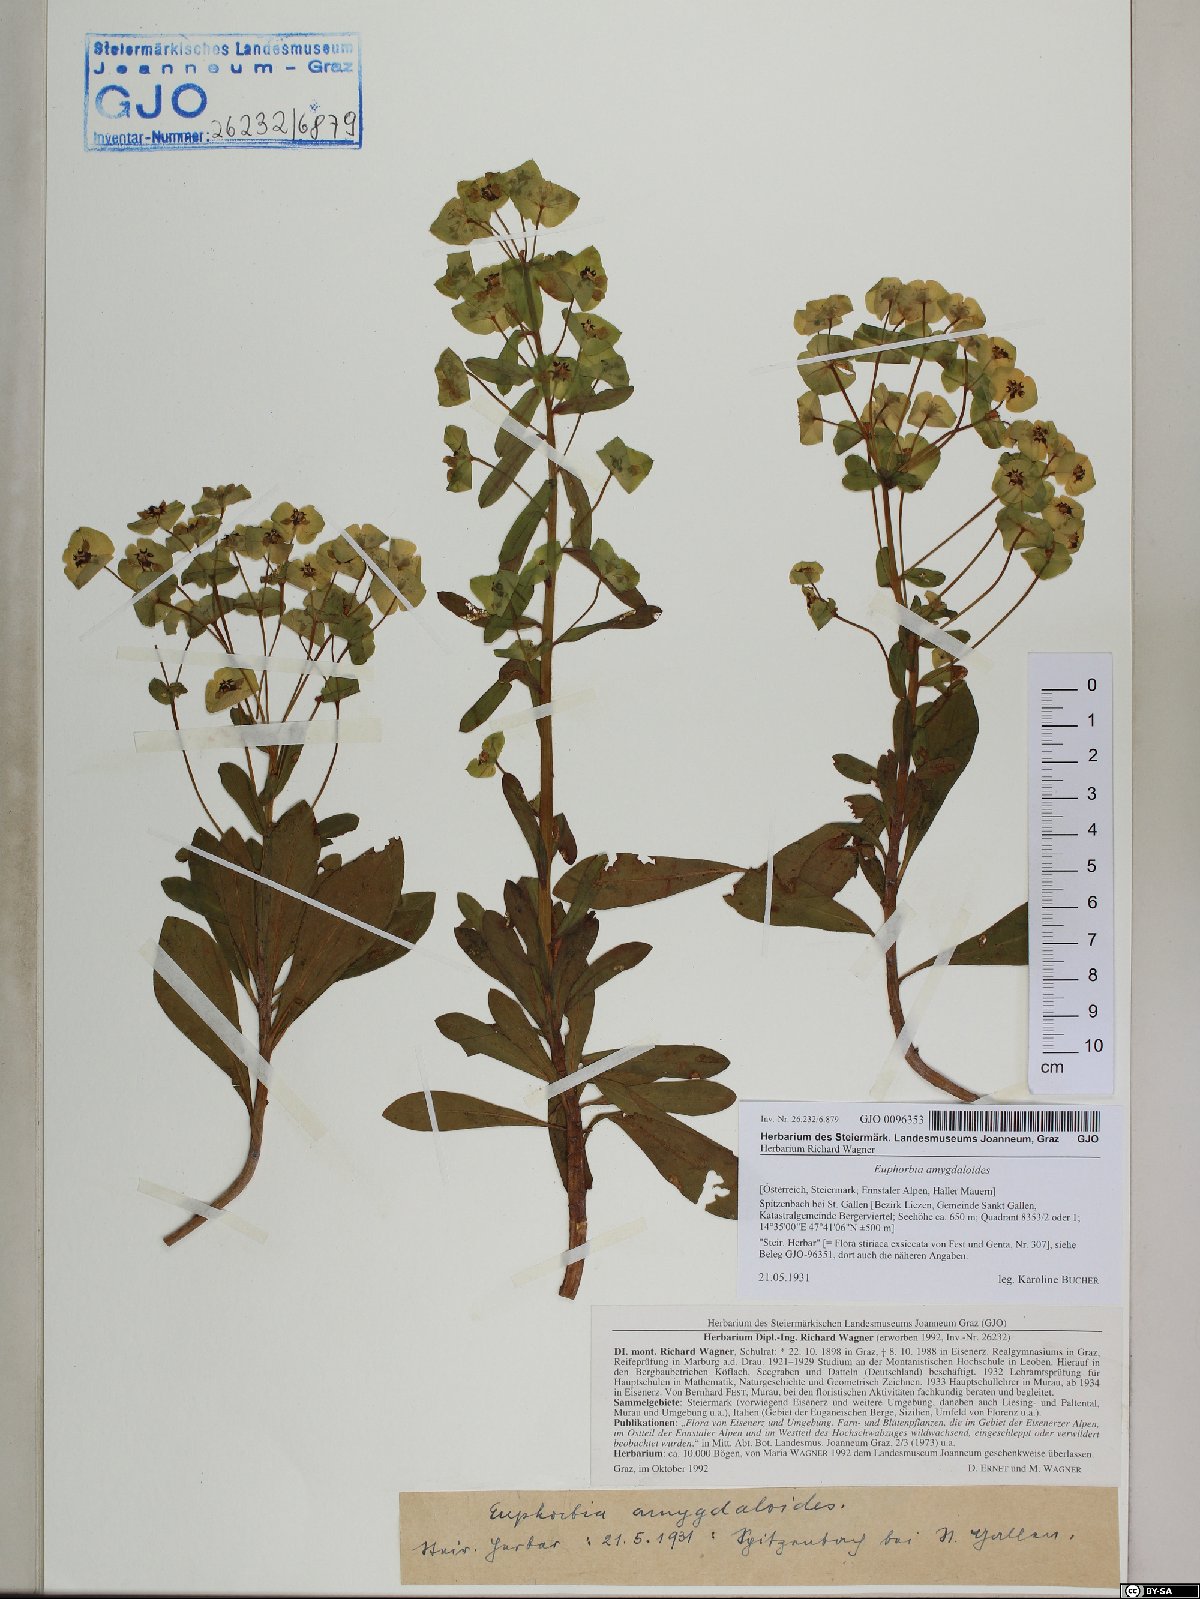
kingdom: Plantae
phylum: Tracheophyta
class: Magnoliopsida
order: Malpighiales
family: Euphorbiaceae
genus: Euphorbia
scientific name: Euphorbia amygdaloides
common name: Wood spurge
